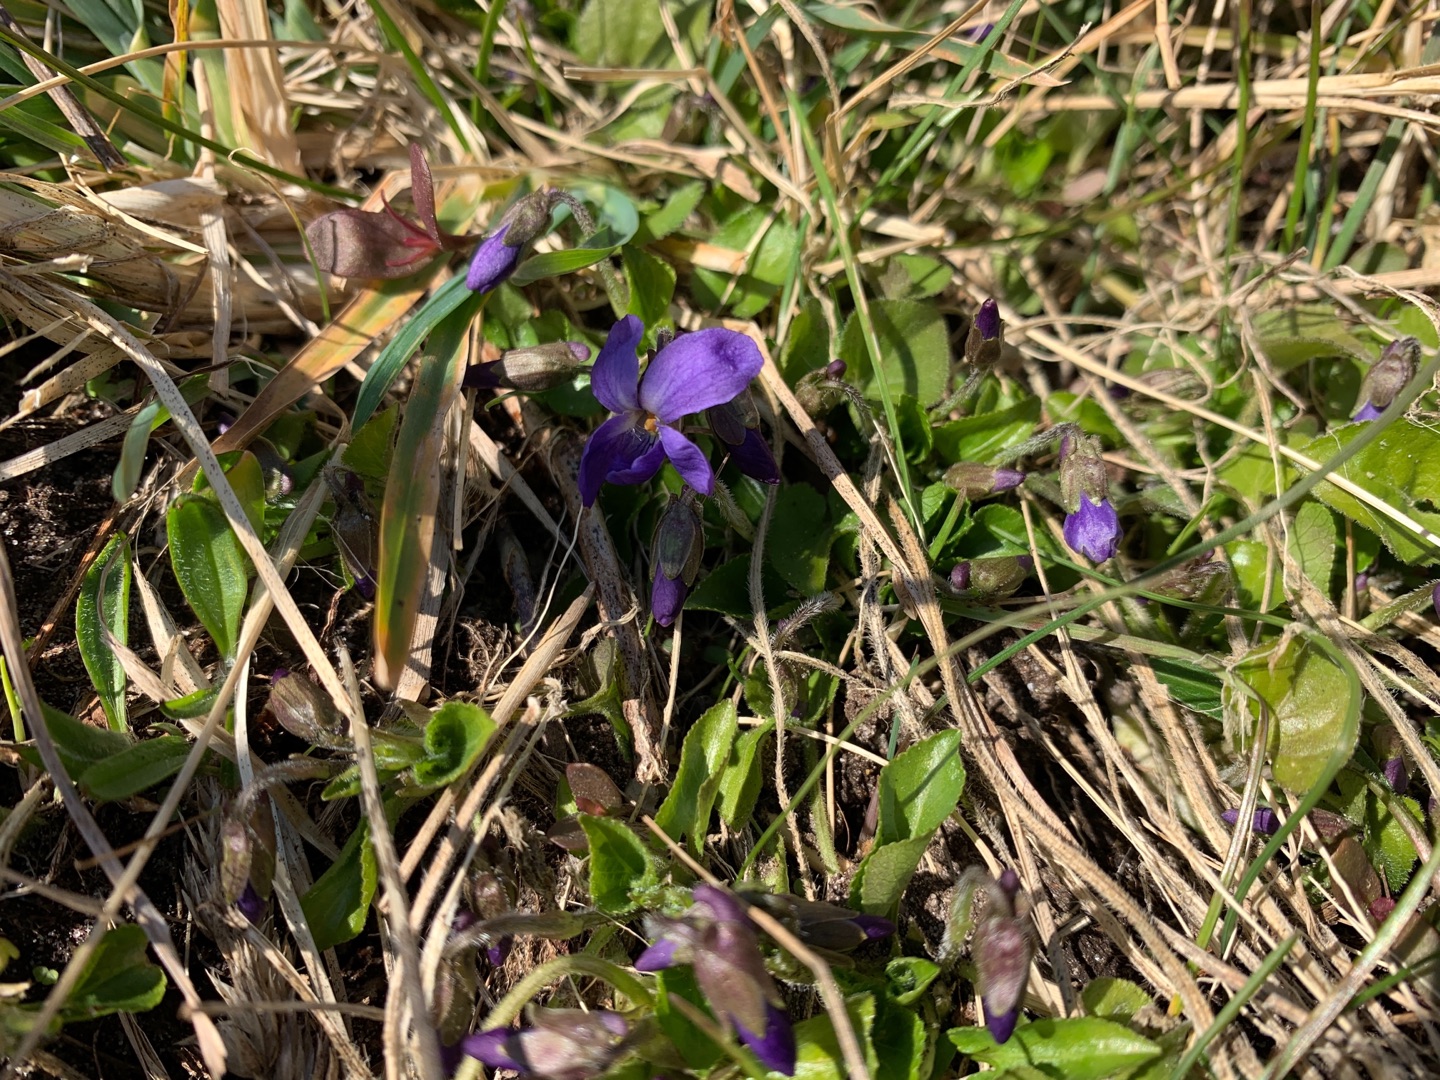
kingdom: Plantae
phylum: Tracheophyta
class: Magnoliopsida
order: Malpighiales
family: Violaceae
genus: Viola
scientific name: Viola odorata
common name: Marts-viol
